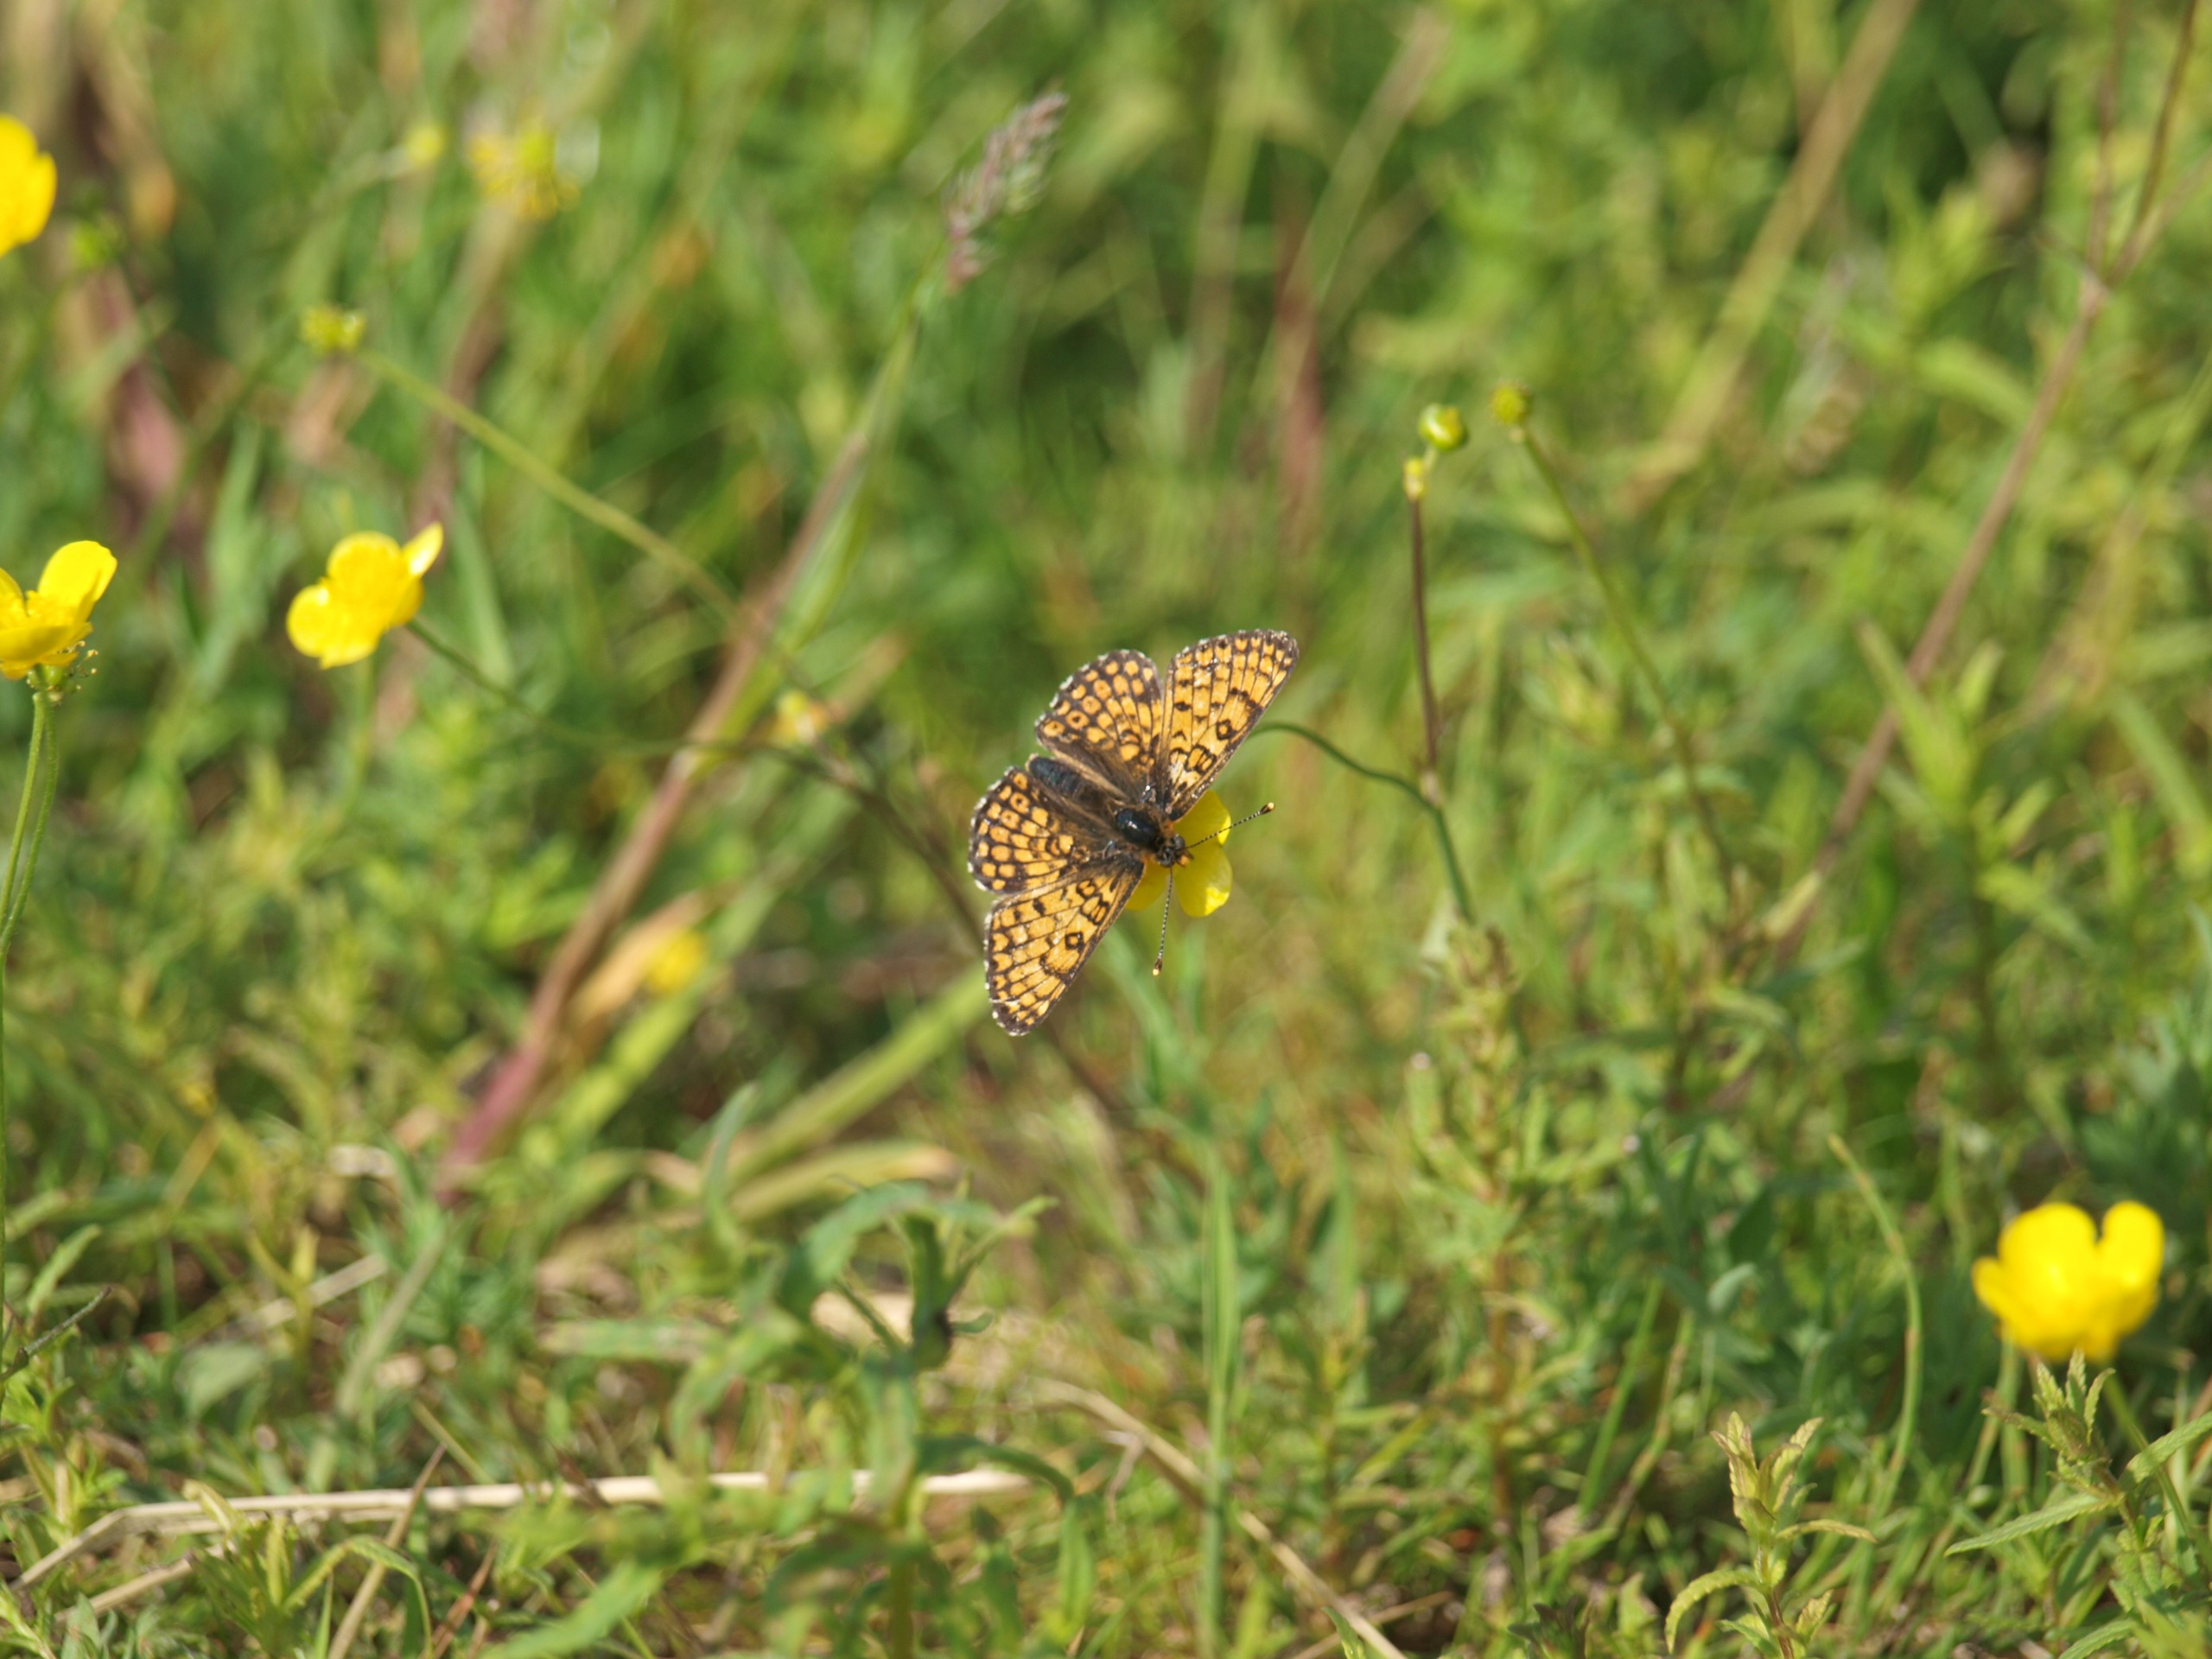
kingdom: Animalia
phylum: Arthropoda
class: Insecta
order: Lepidoptera
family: Nymphalidae
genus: Melitaea
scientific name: Melitaea cinxia
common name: Okkergul pletvinge
